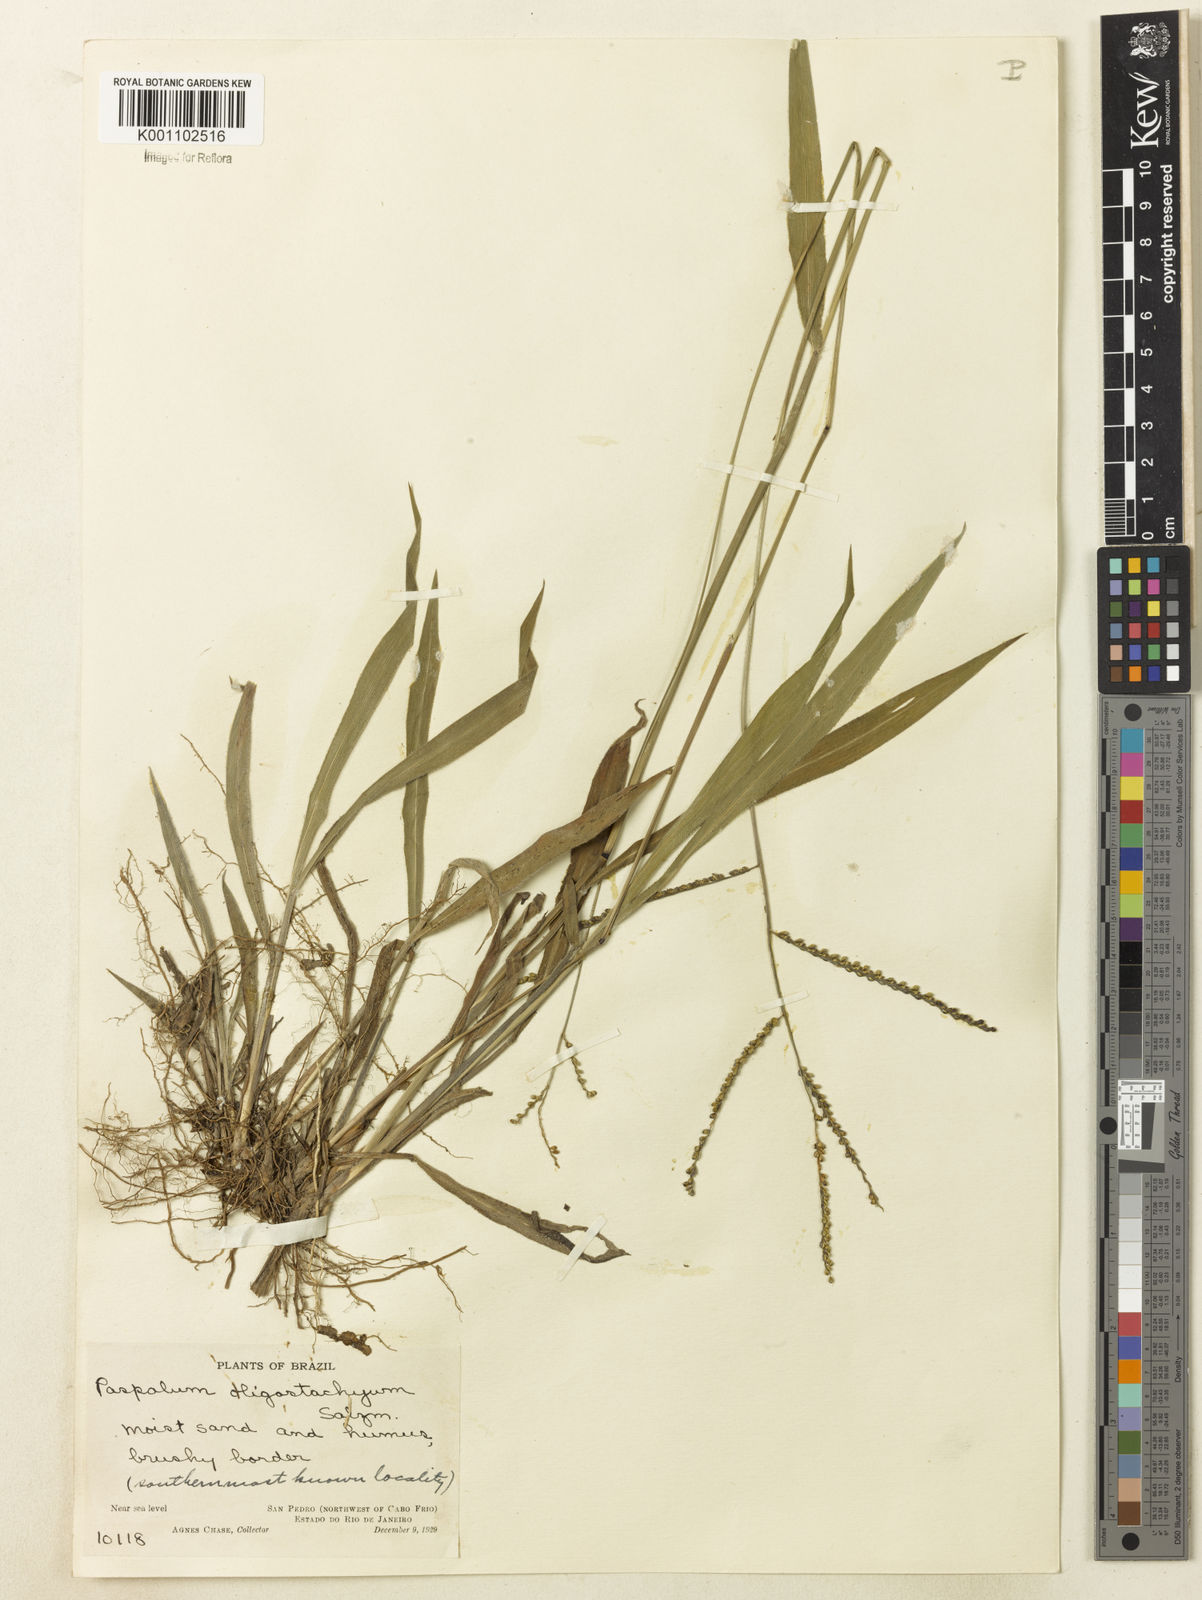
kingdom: Plantae
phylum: Tracheophyta
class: Liliopsida
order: Poales
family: Poaceae
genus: Paspalum
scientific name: Paspalum oligostachyum
